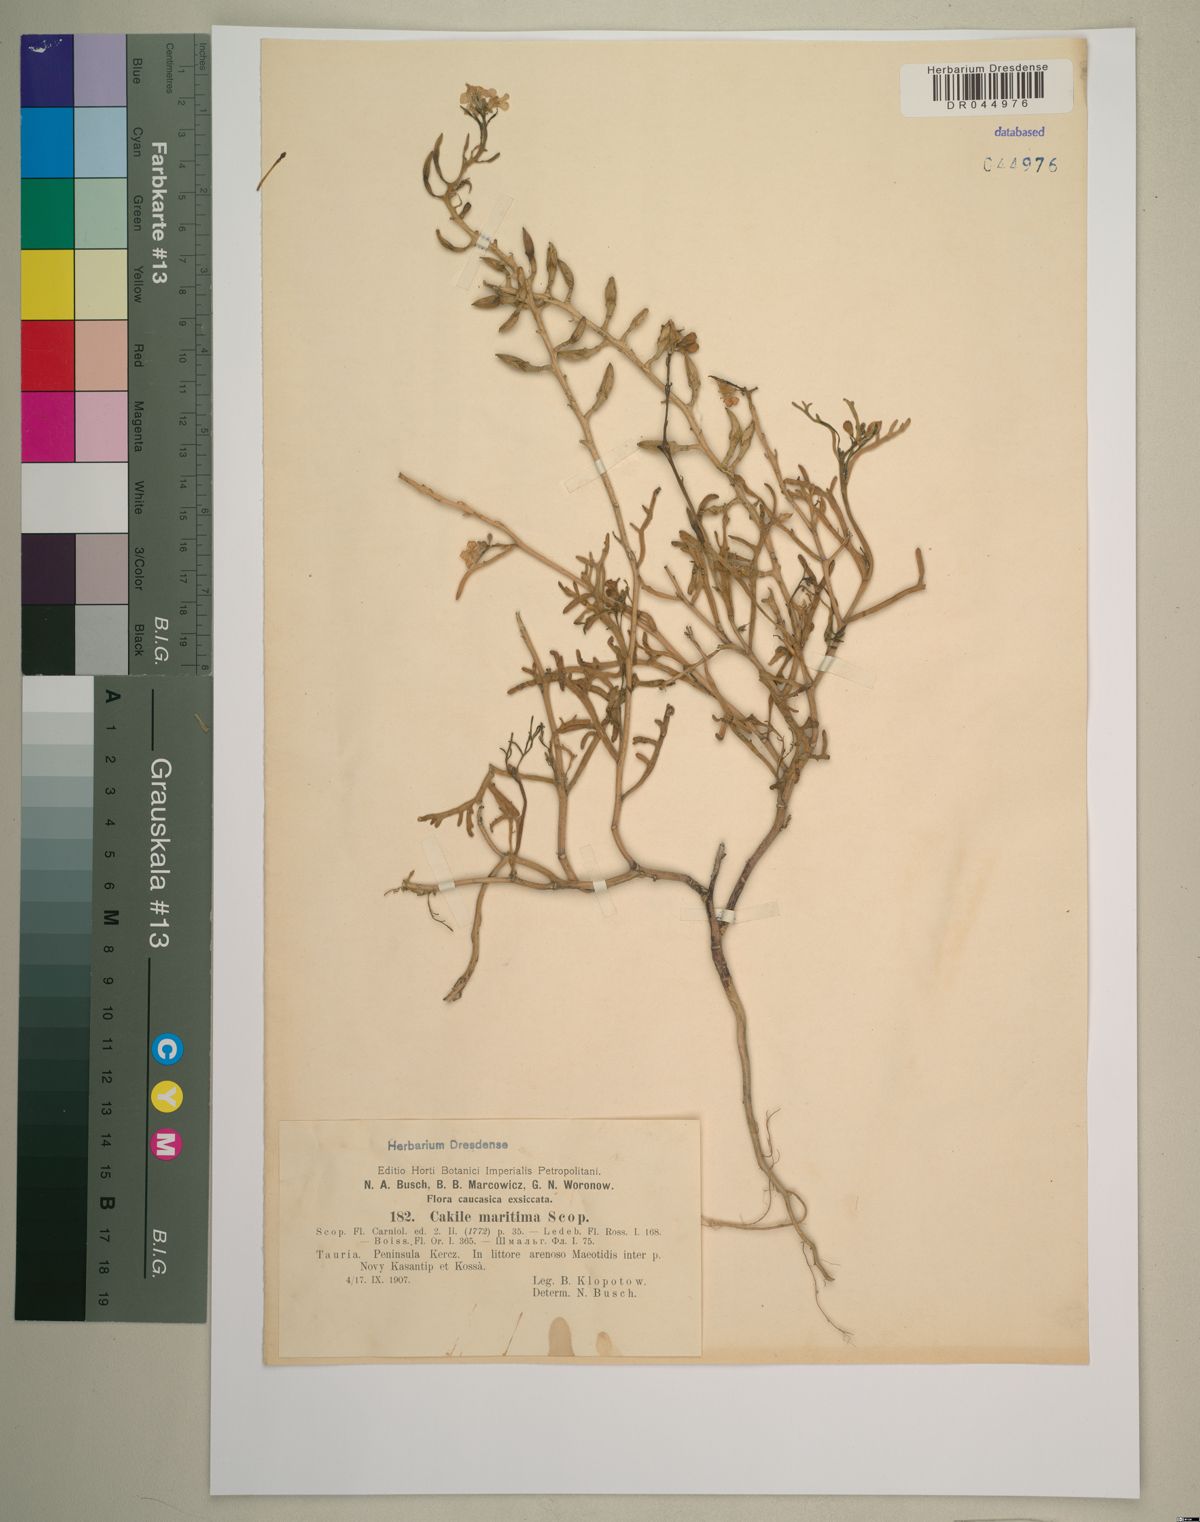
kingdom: Plantae
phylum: Tracheophyta
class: Magnoliopsida
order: Brassicales
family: Brassicaceae
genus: Cakile
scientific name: Cakile maritima
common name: Sea rocket
